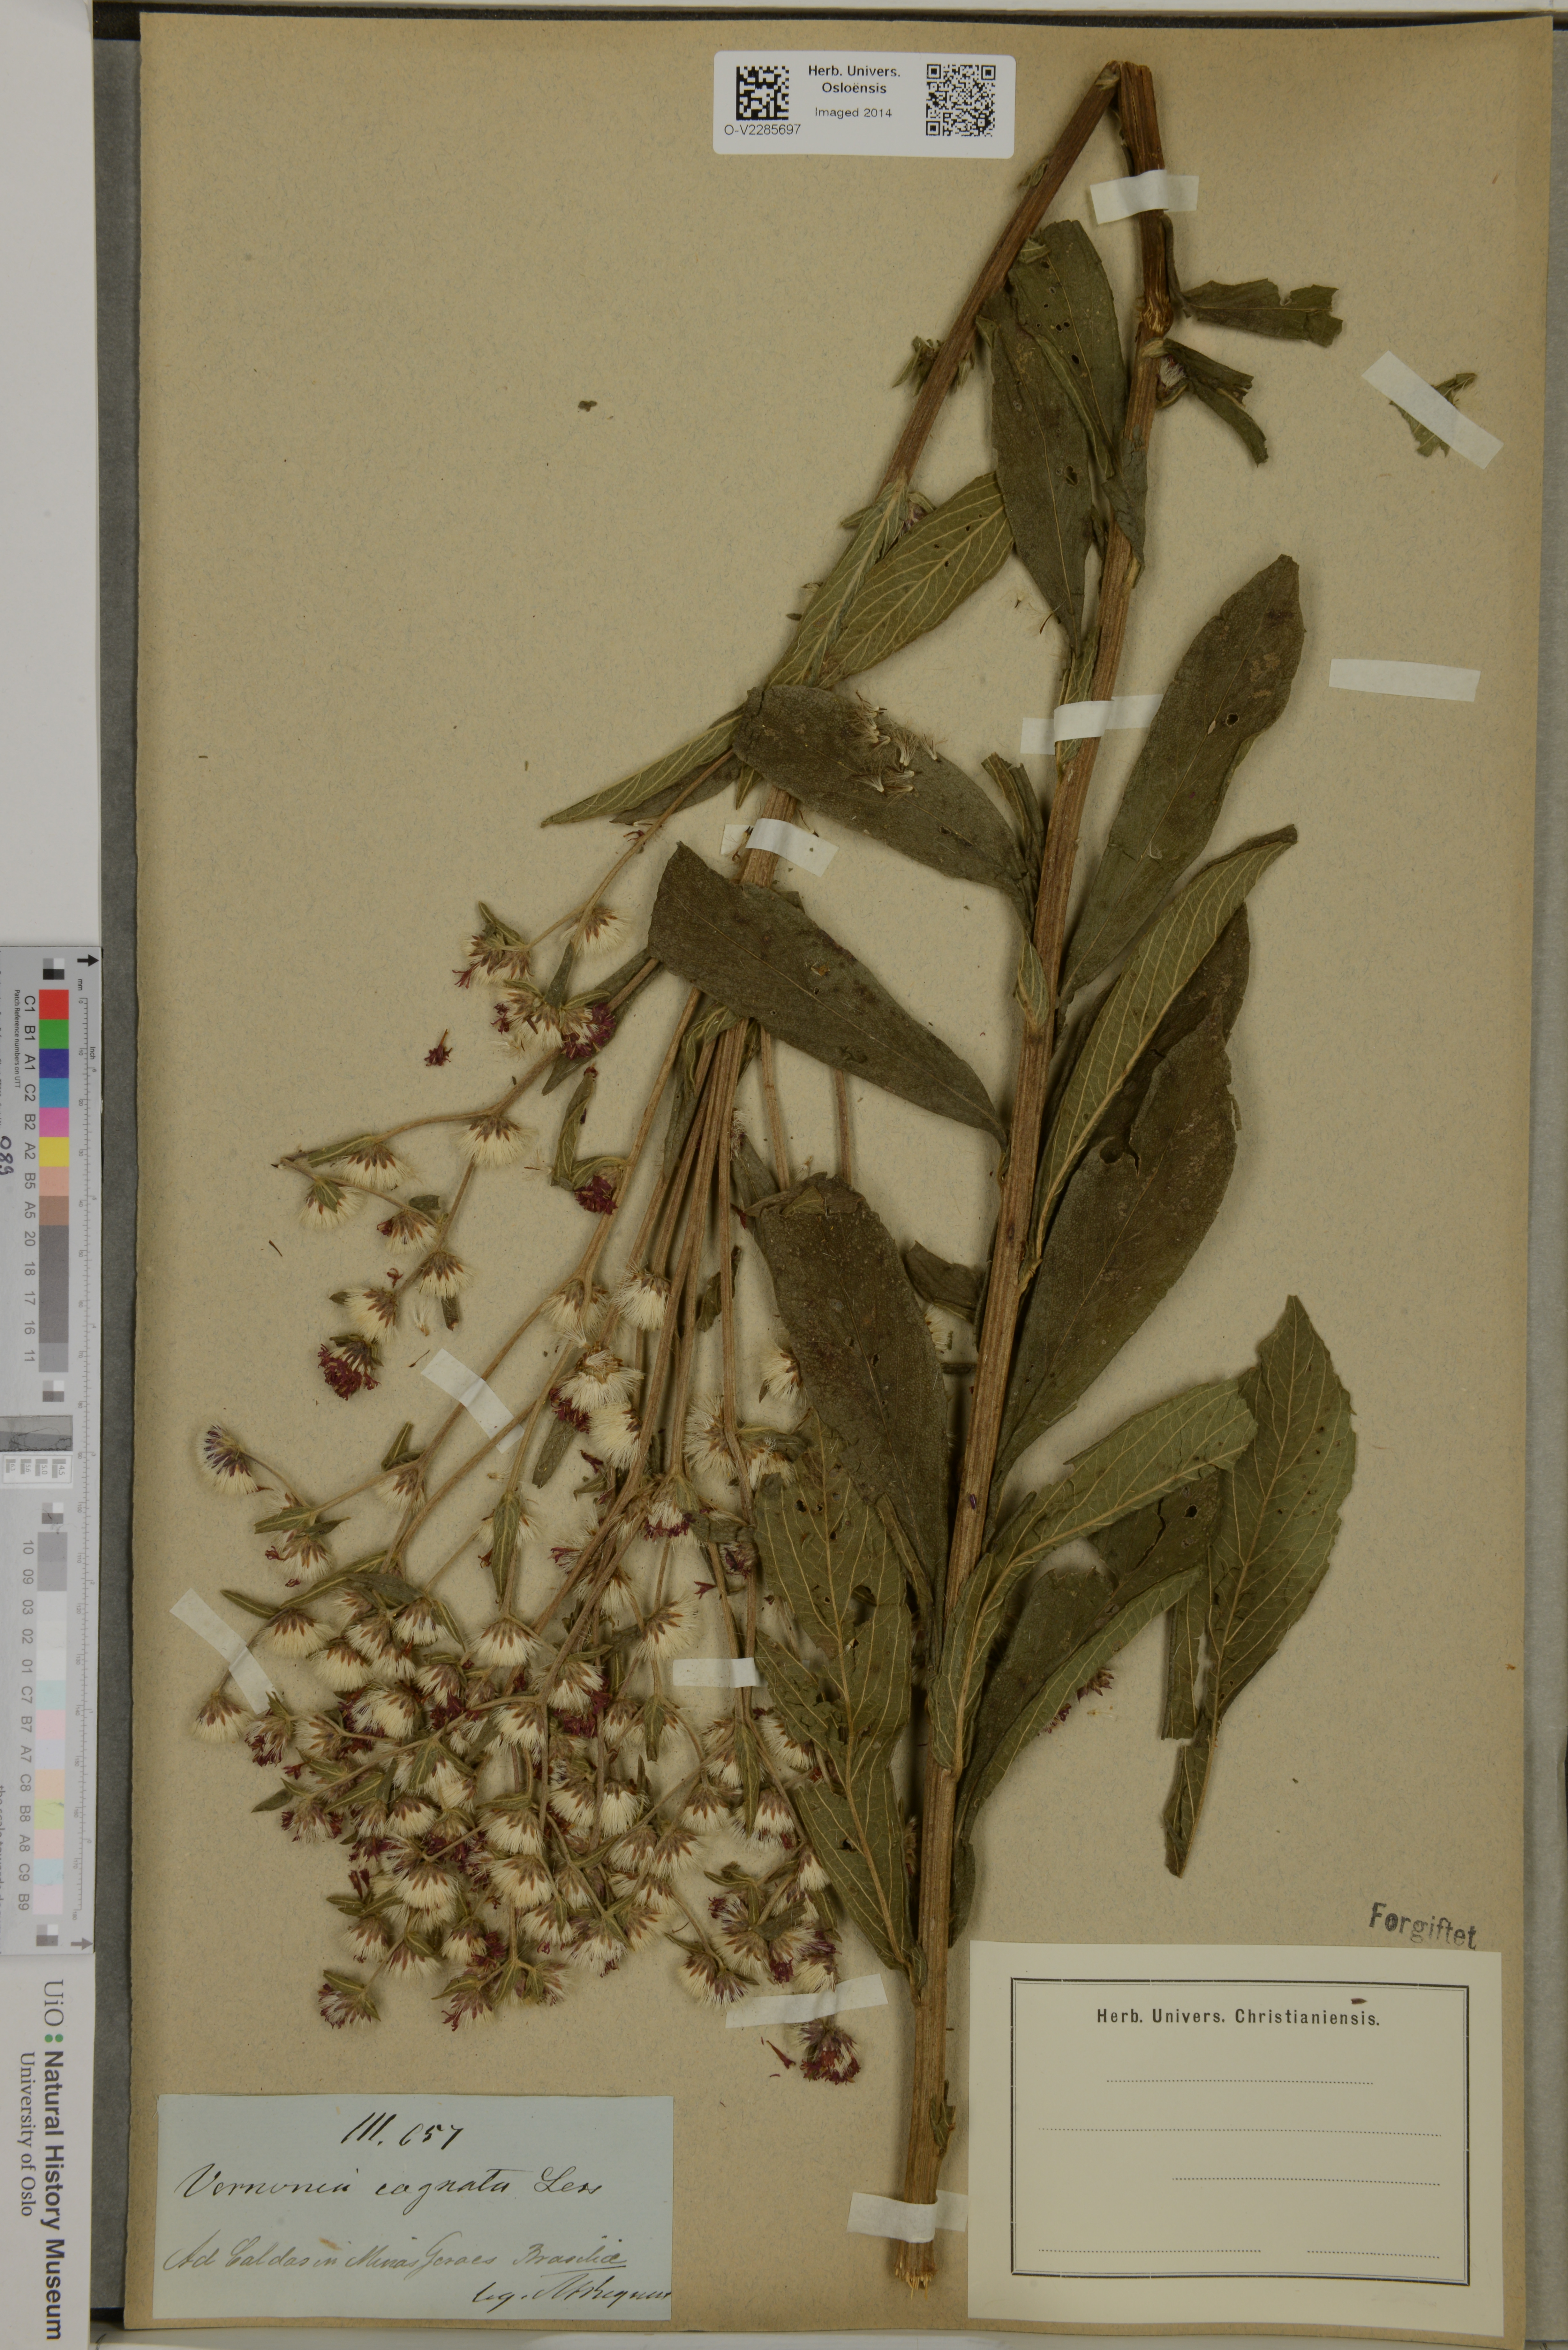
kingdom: Plantae
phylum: Tracheophyta
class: Magnoliopsida
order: Asterales
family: Asteraceae
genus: Chrysolaena
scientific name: Chrysolaena cognata
